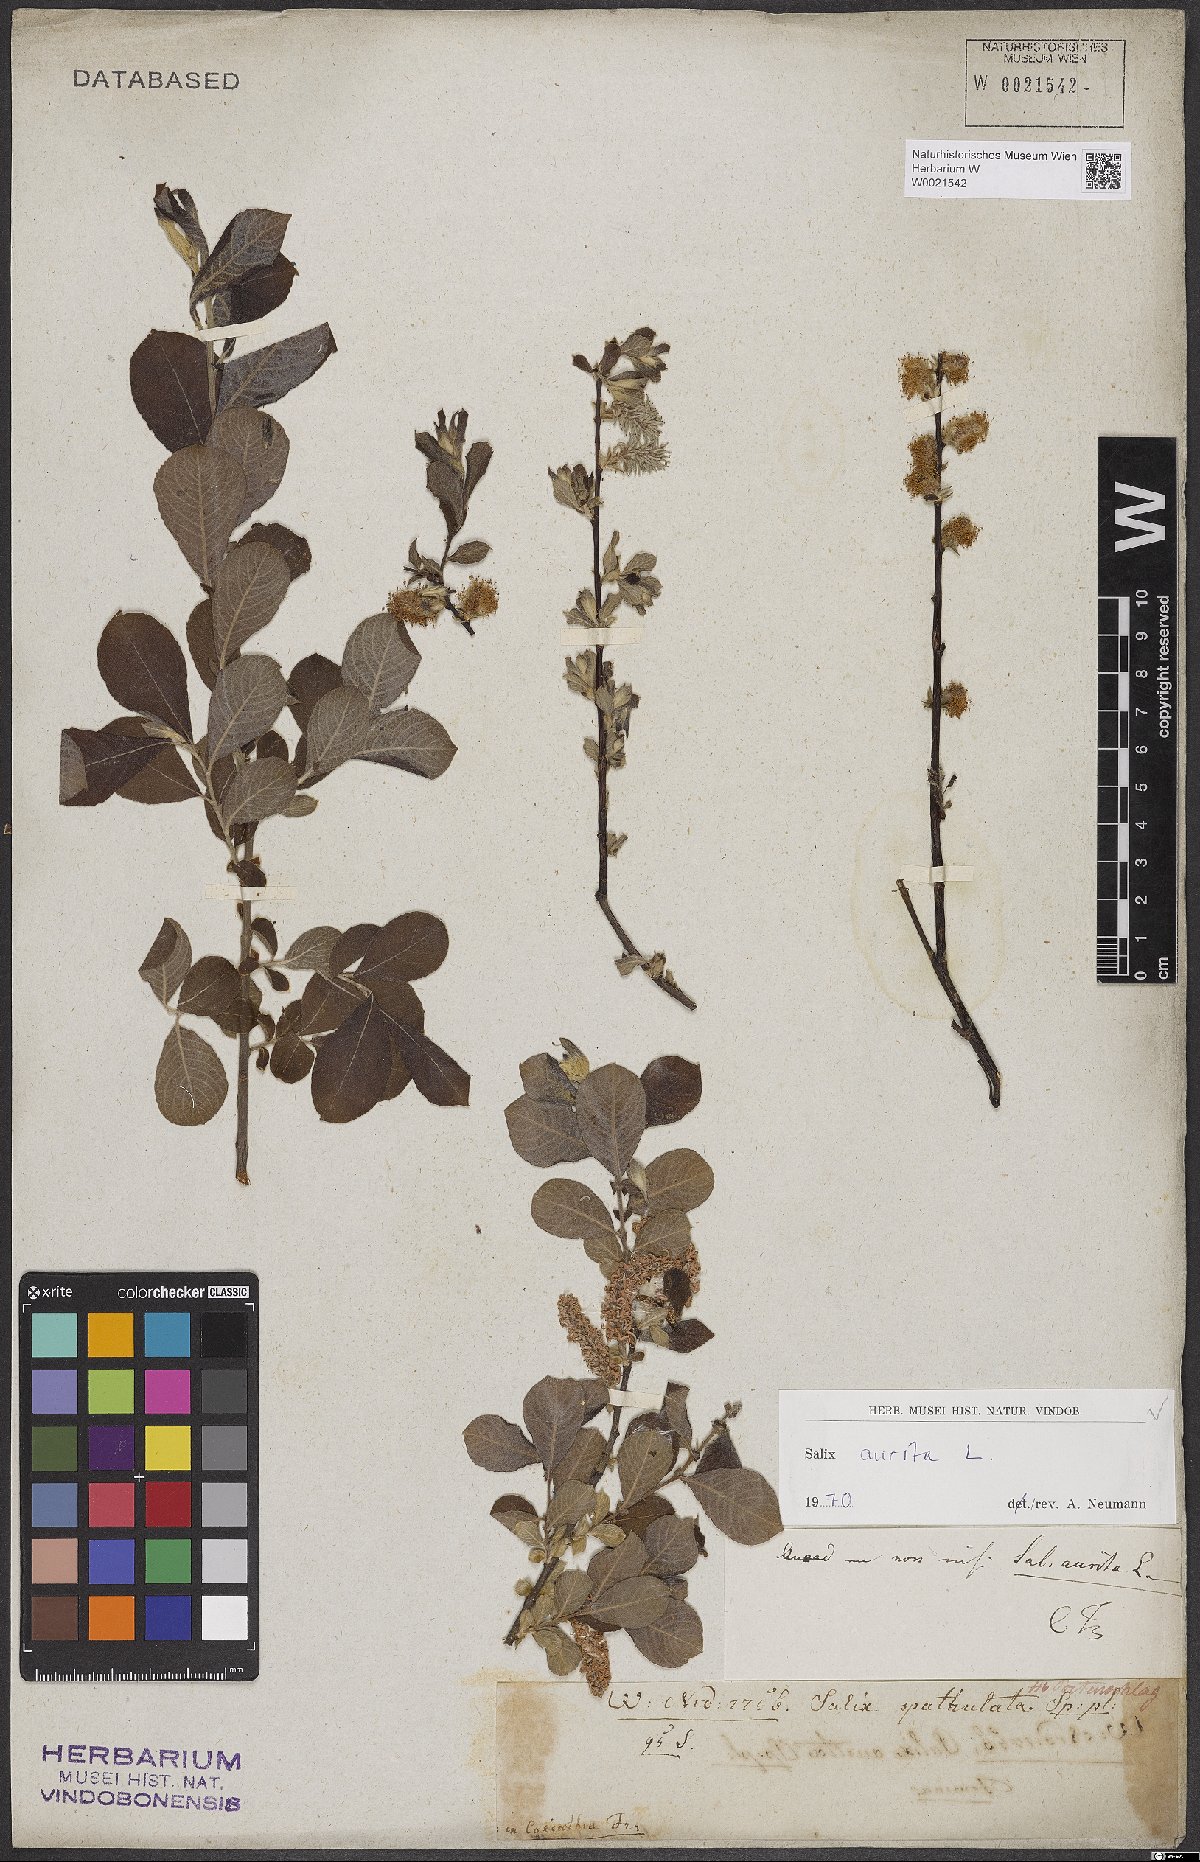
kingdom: Plantae
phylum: Tracheophyta
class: Magnoliopsida
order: Malpighiales
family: Salicaceae
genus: Salix
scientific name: Salix aurita
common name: Eared willow
